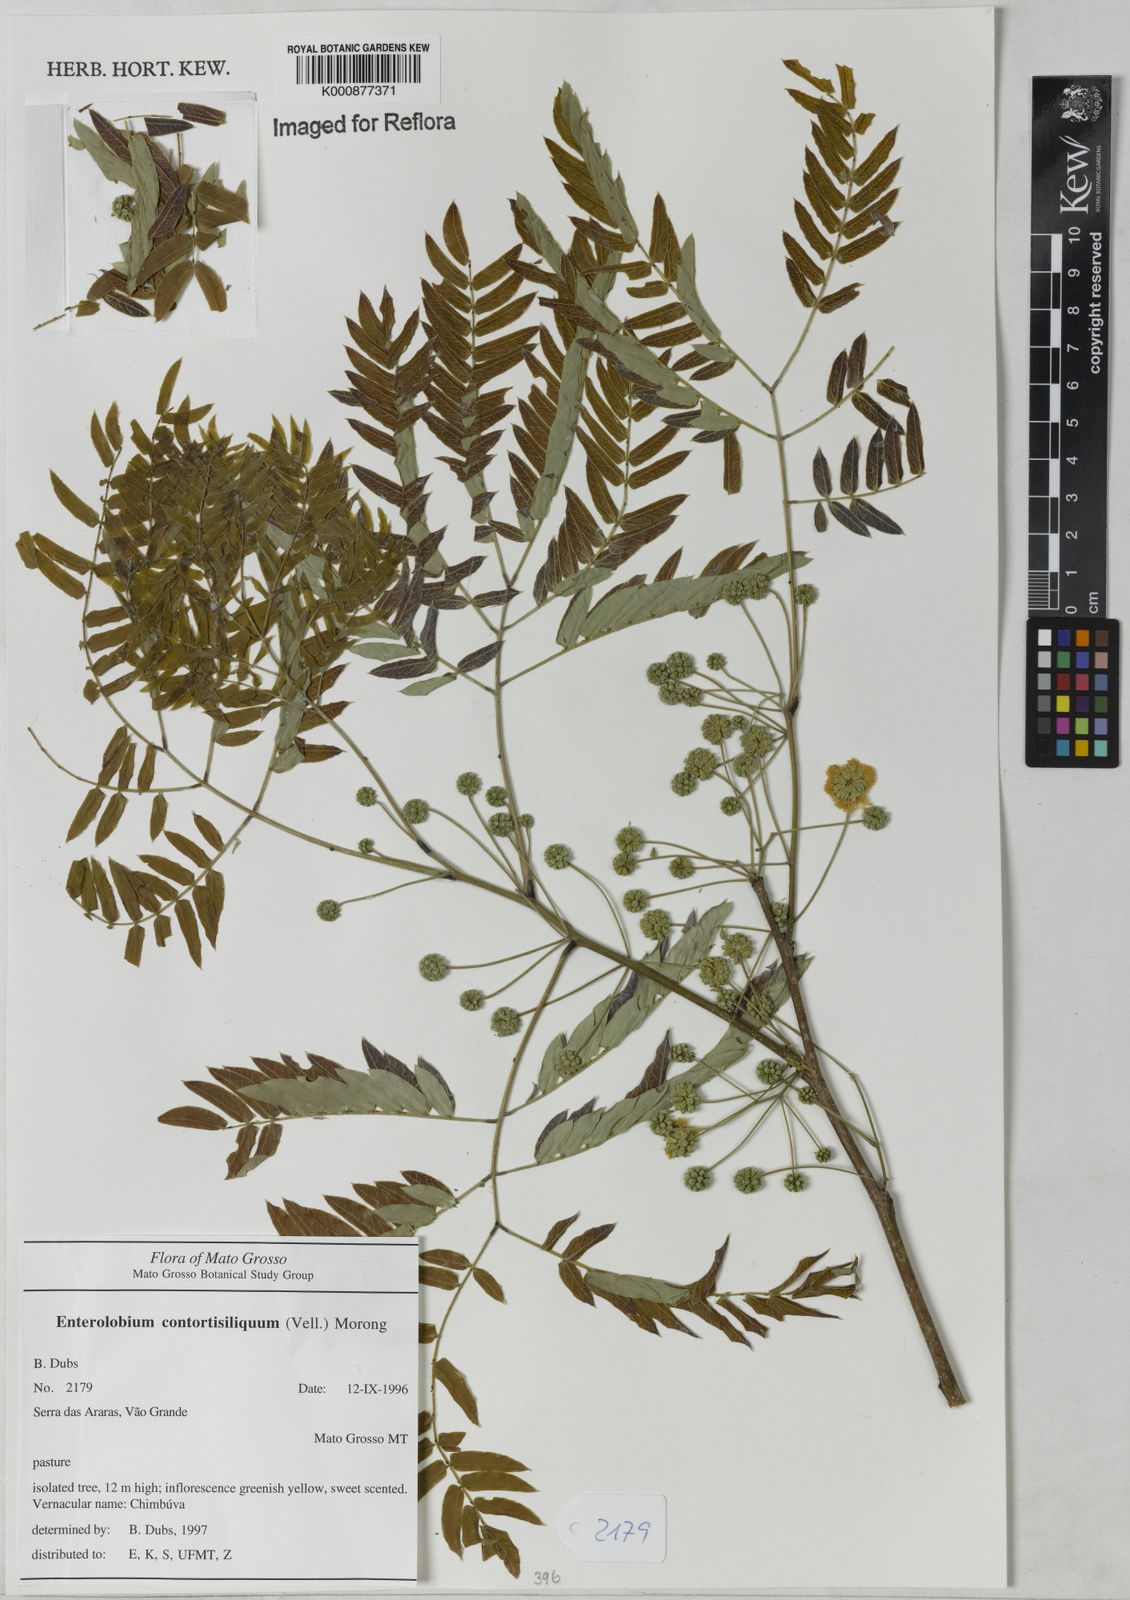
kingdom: Plantae
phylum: Tracheophyta
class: Magnoliopsida
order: Fabales
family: Fabaceae
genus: Enterolobium
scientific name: Enterolobium contortisiliquum
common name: Pacara earpod tree
